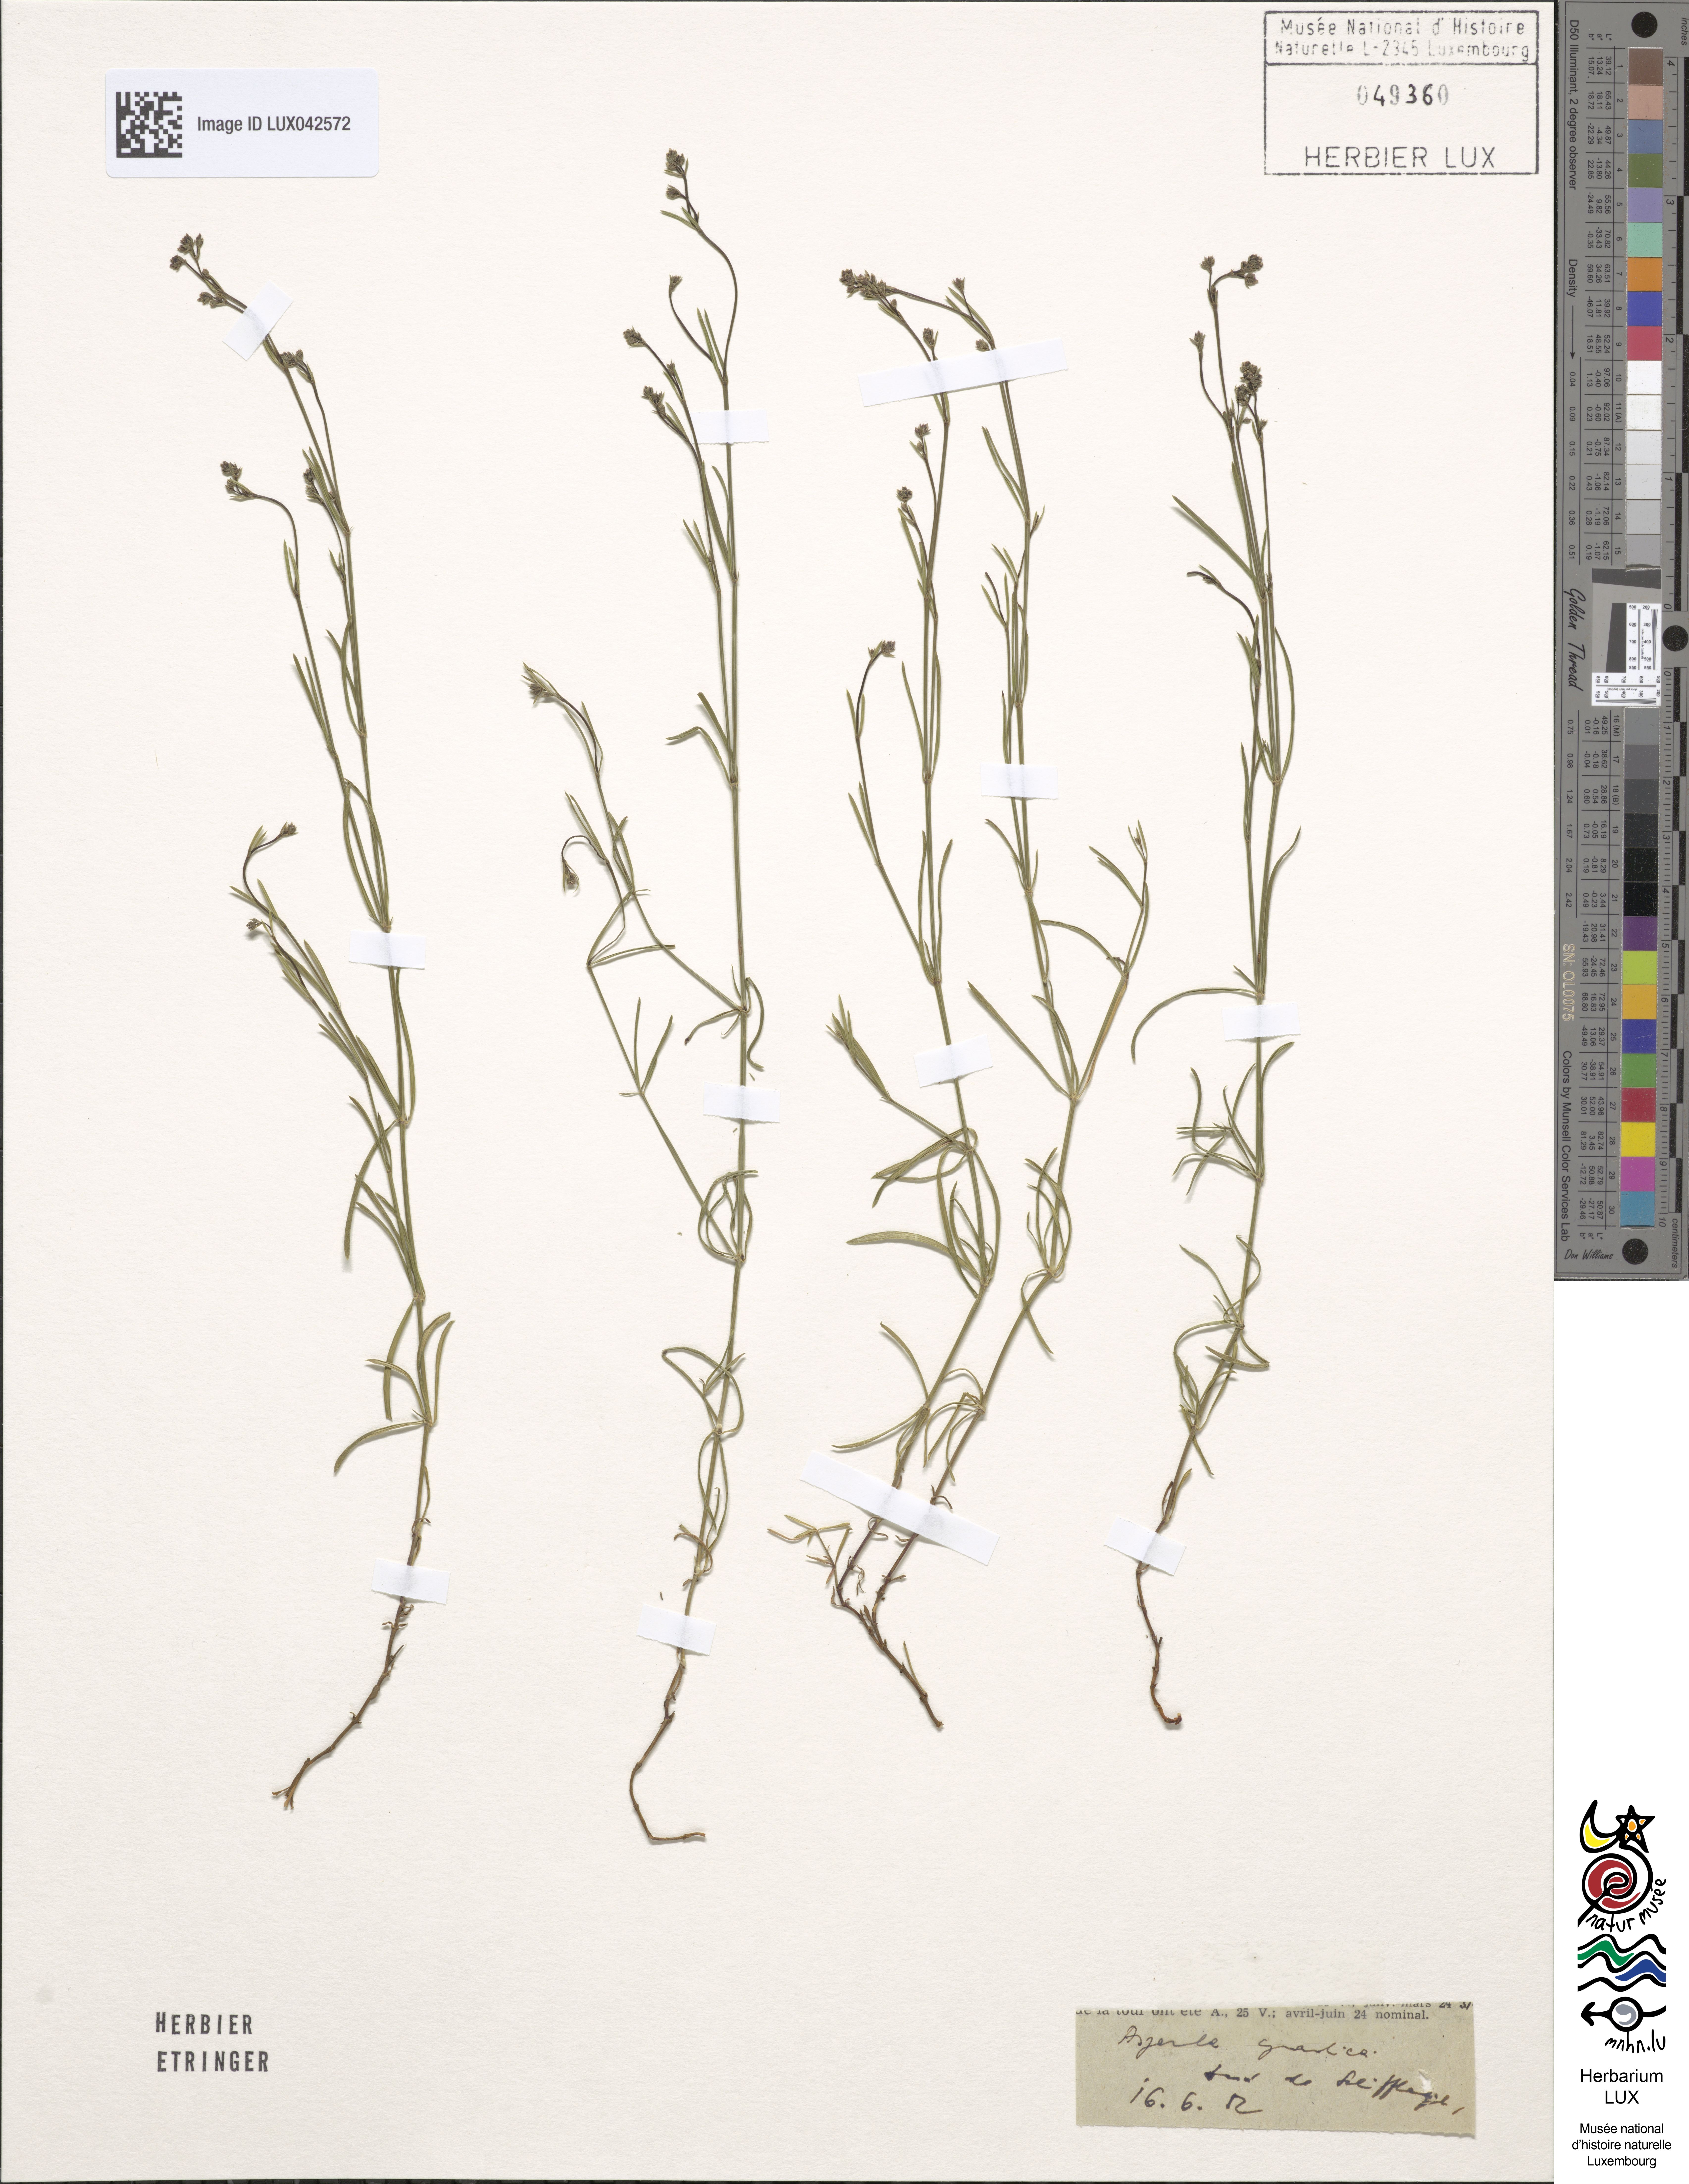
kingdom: Plantae
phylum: Tracheophyta
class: Magnoliopsida
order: Gentianales
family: Rubiaceae
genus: Cynanchica
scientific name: Cynanchica pyrenaica
